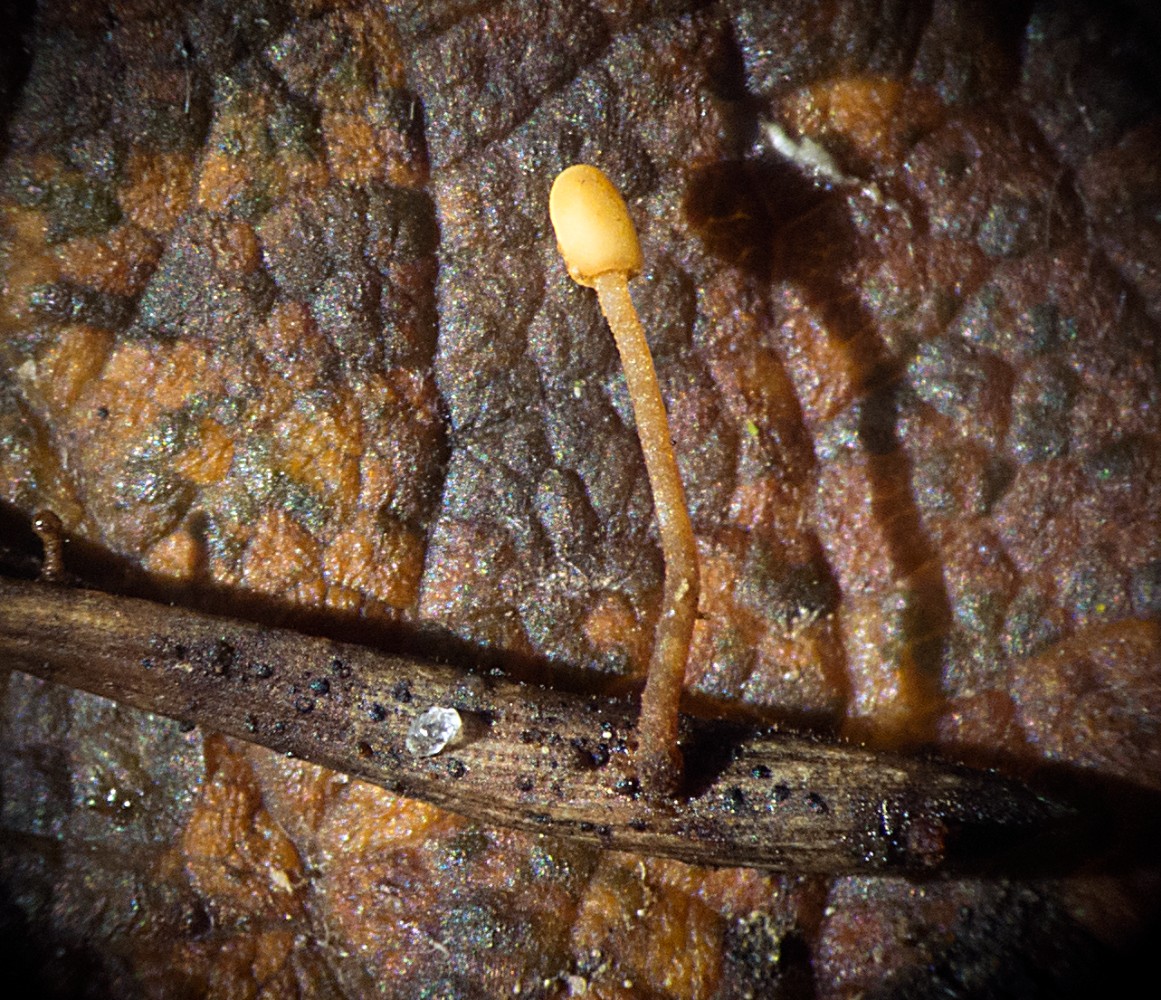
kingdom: Fungi
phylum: Ascomycota
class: Leotiomycetes
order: Helotiales
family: Cenangiaceae
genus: Heyderia
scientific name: Heyderia cucullata
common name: dværg-sækhue
